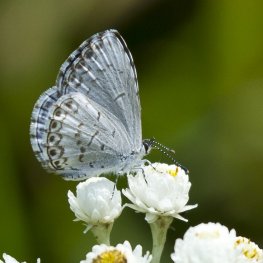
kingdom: Animalia
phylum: Arthropoda
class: Insecta
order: Lepidoptera
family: Lycaenidae
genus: Cyaniris
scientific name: Cyaniris neglecta
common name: Summer Azure
